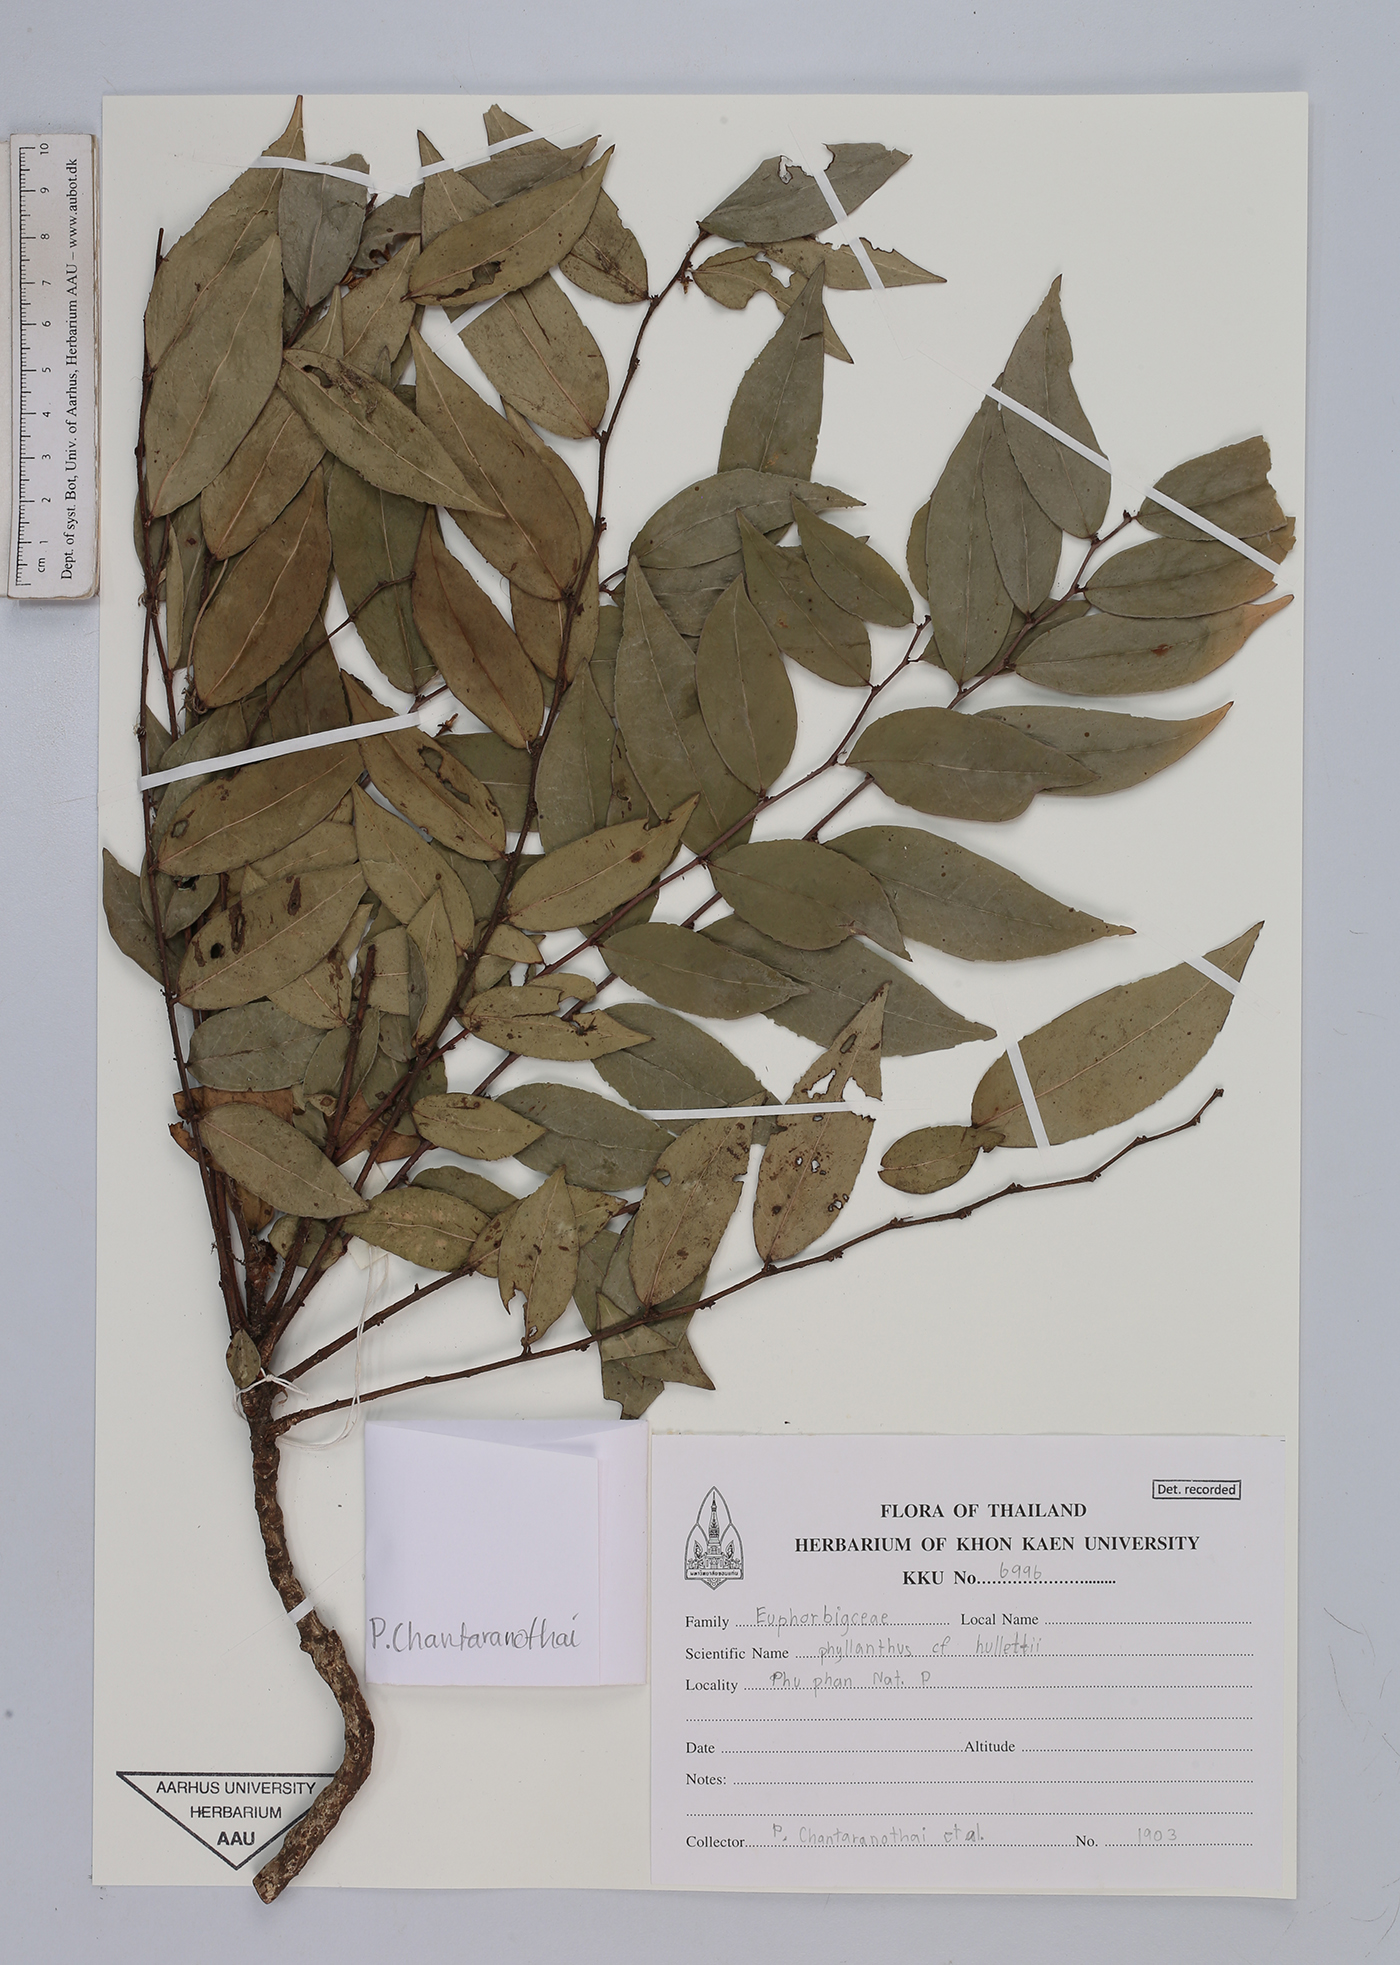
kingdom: Plantae
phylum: Tracheophyta
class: Magnoliopsida
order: Malpighiales
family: Phyllanthaceae
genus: Phyllanthus
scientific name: Phyllanthus gracilipes
